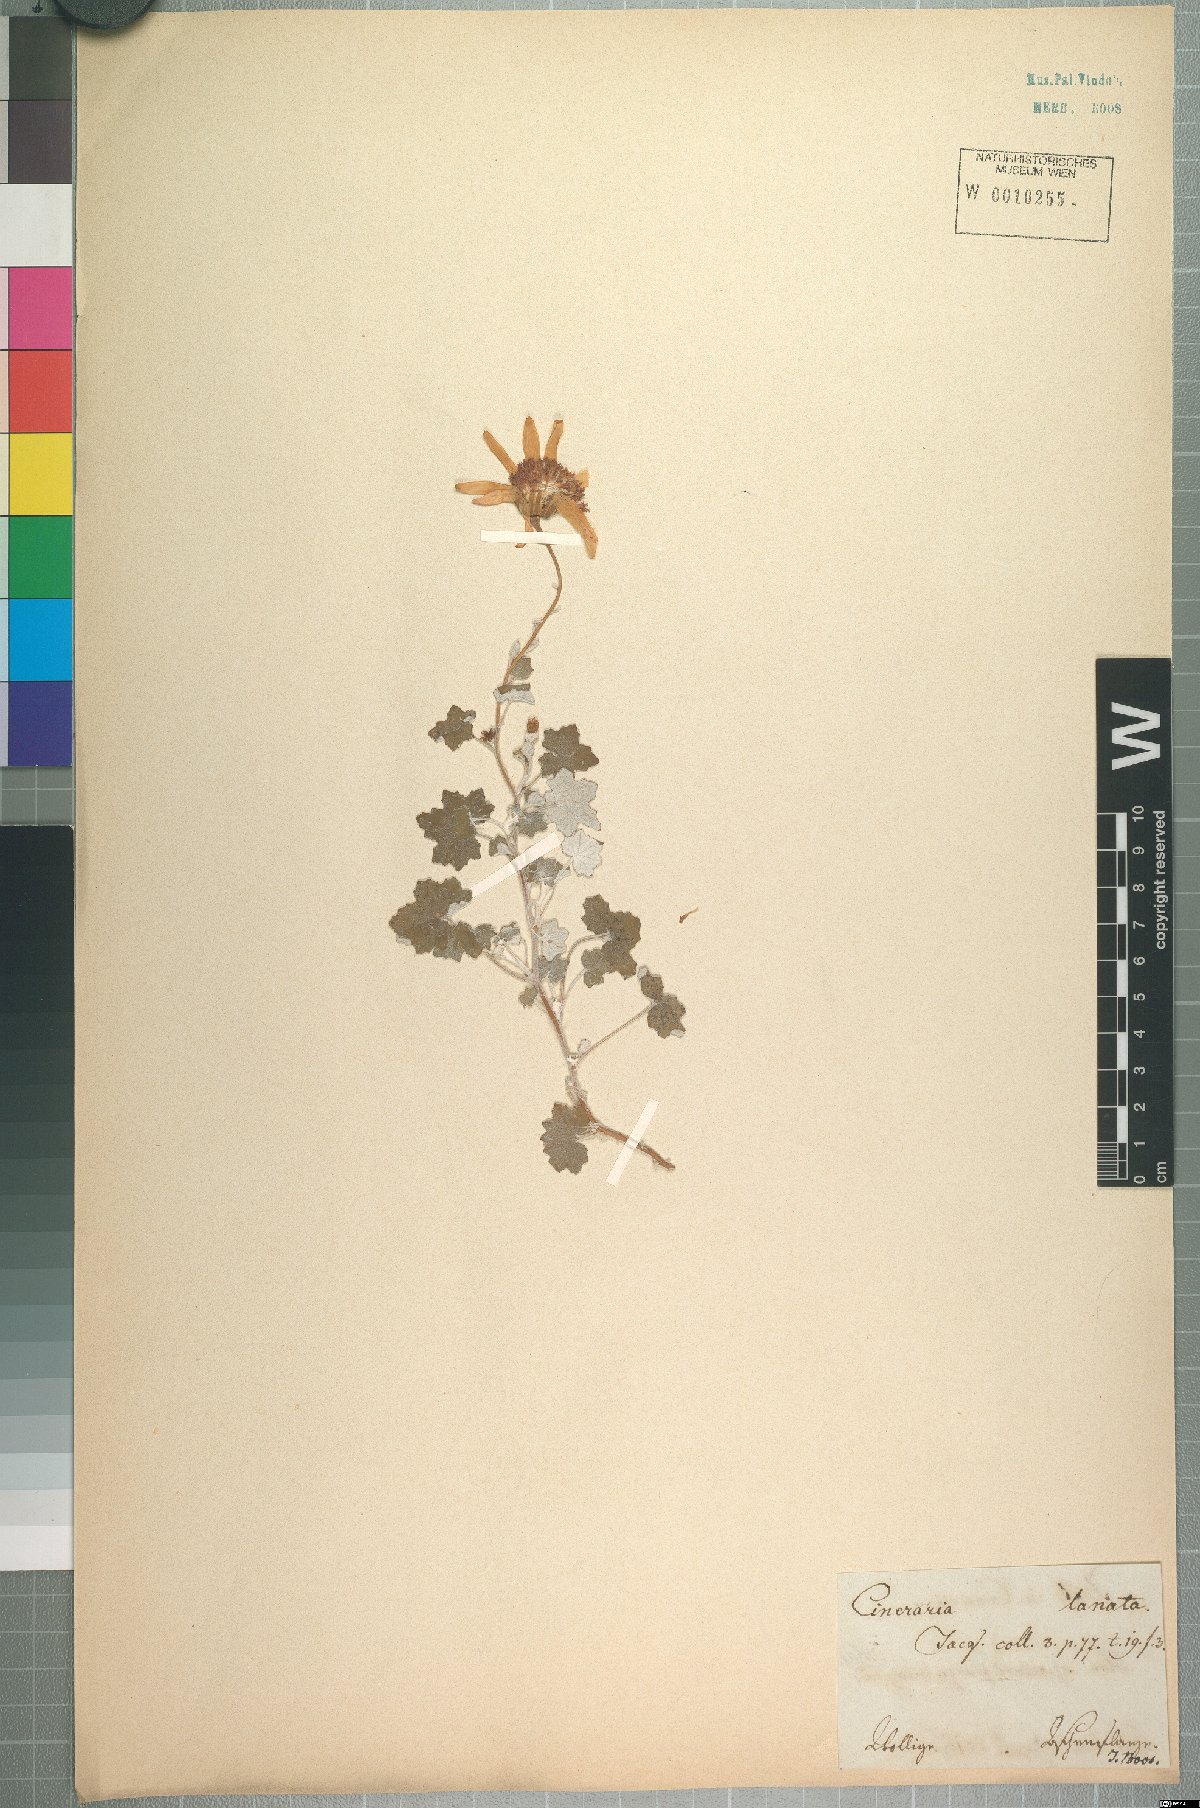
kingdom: Plantae
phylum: Tracheophyta
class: Magnoliopsida
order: Asterales
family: Asteraceae
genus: Cineraria
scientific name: Cineraria lanosa
